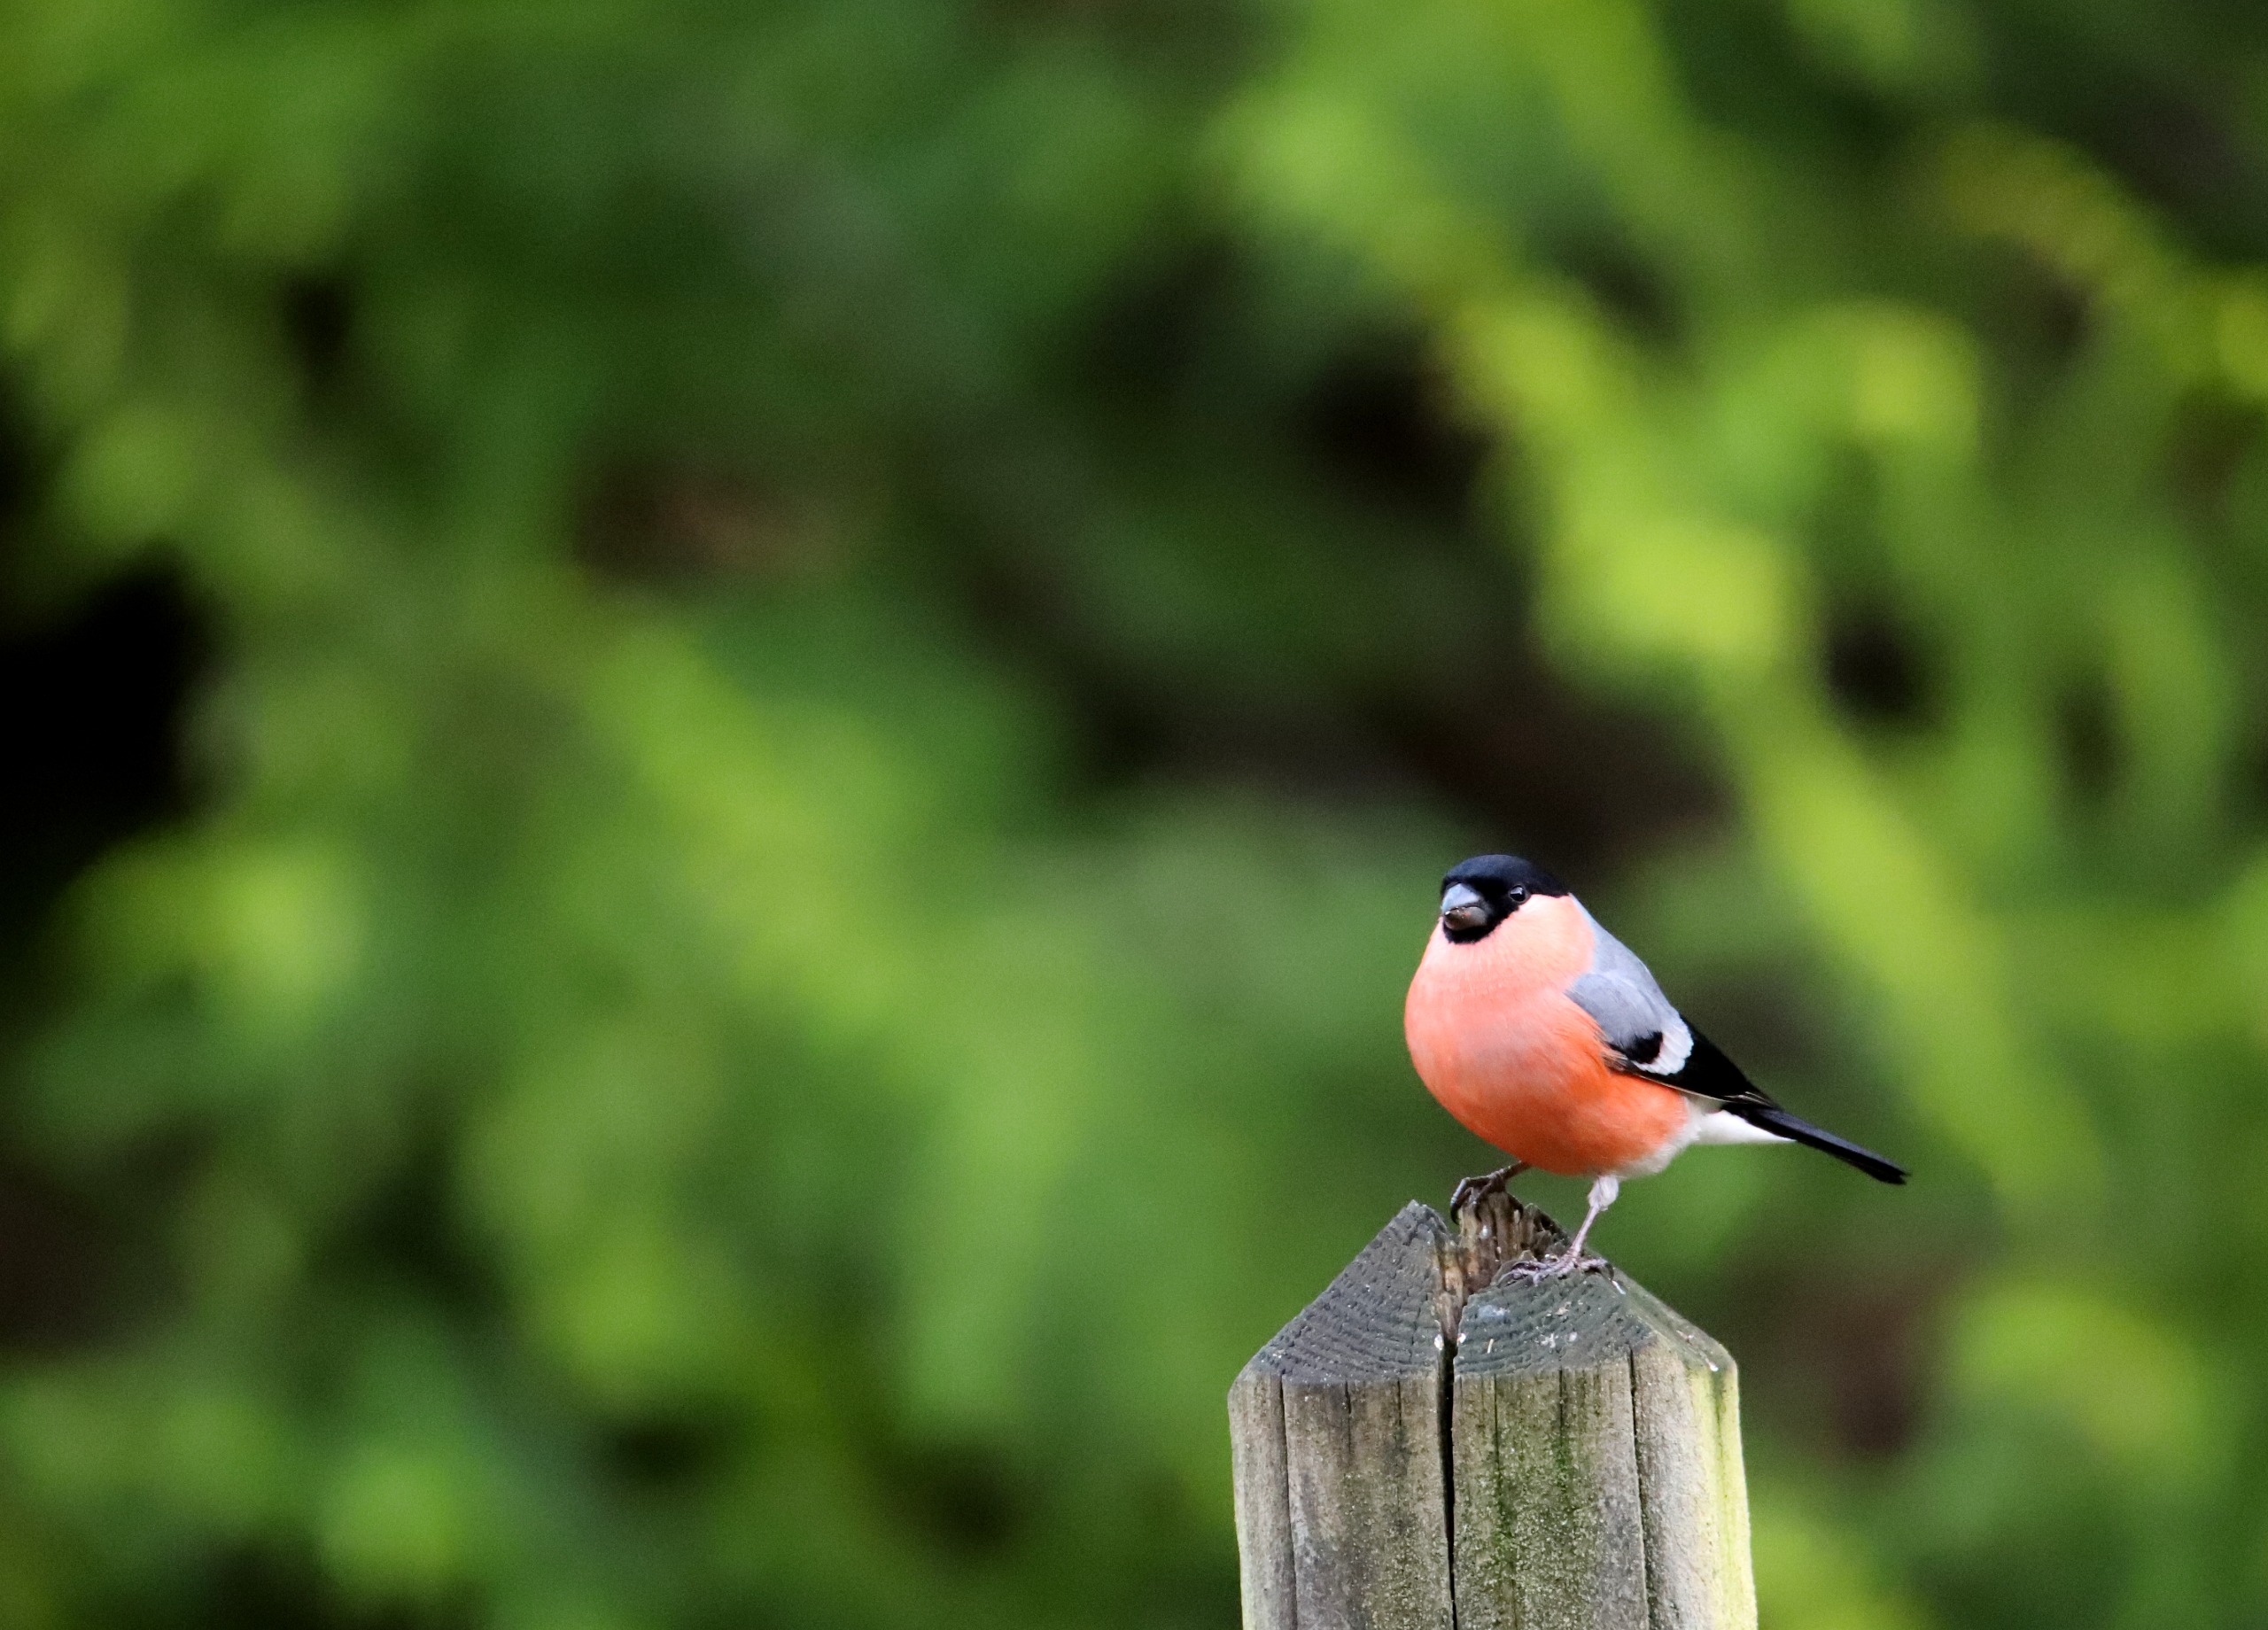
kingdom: Animalia
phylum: Chordata
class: Aves
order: Passeriformes
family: Fringillidae
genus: Pyrrhula
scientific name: Pyrrhula pyrrhula
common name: Dompap
